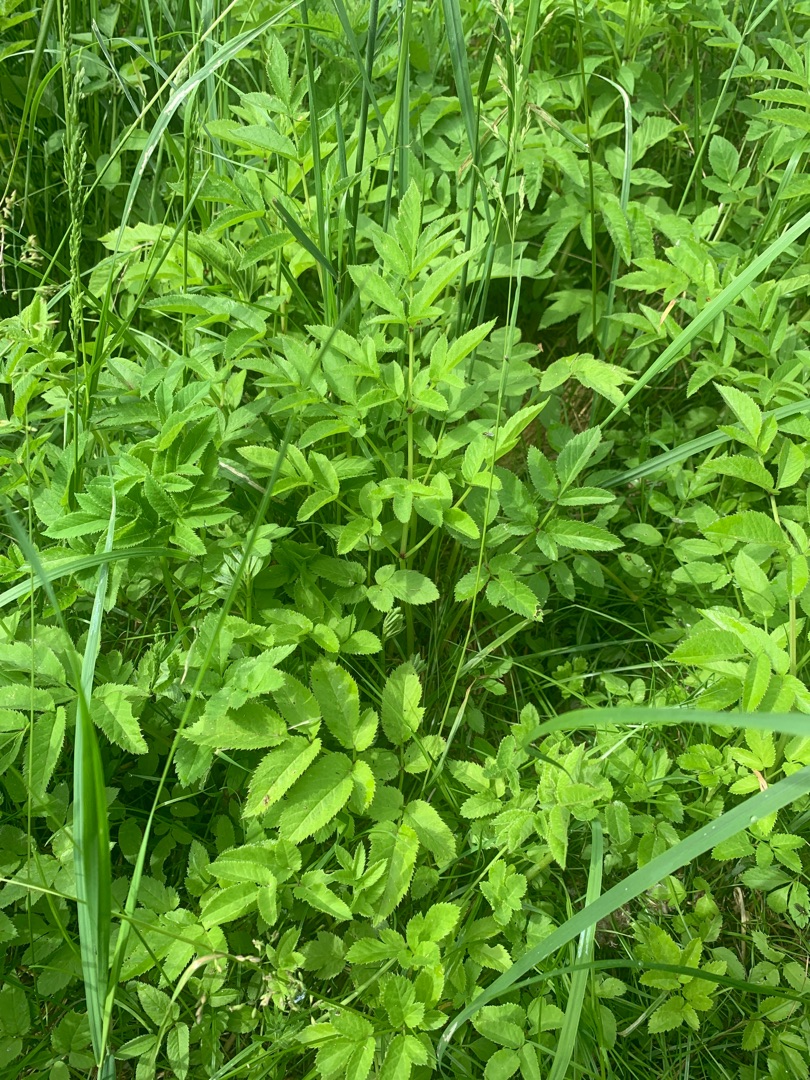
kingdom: Plantae
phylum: Tracheophyta
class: Magnoliopsida
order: Apiales
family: Apiaceae
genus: Angelica
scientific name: Angelica sylvestris
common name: Angelik
